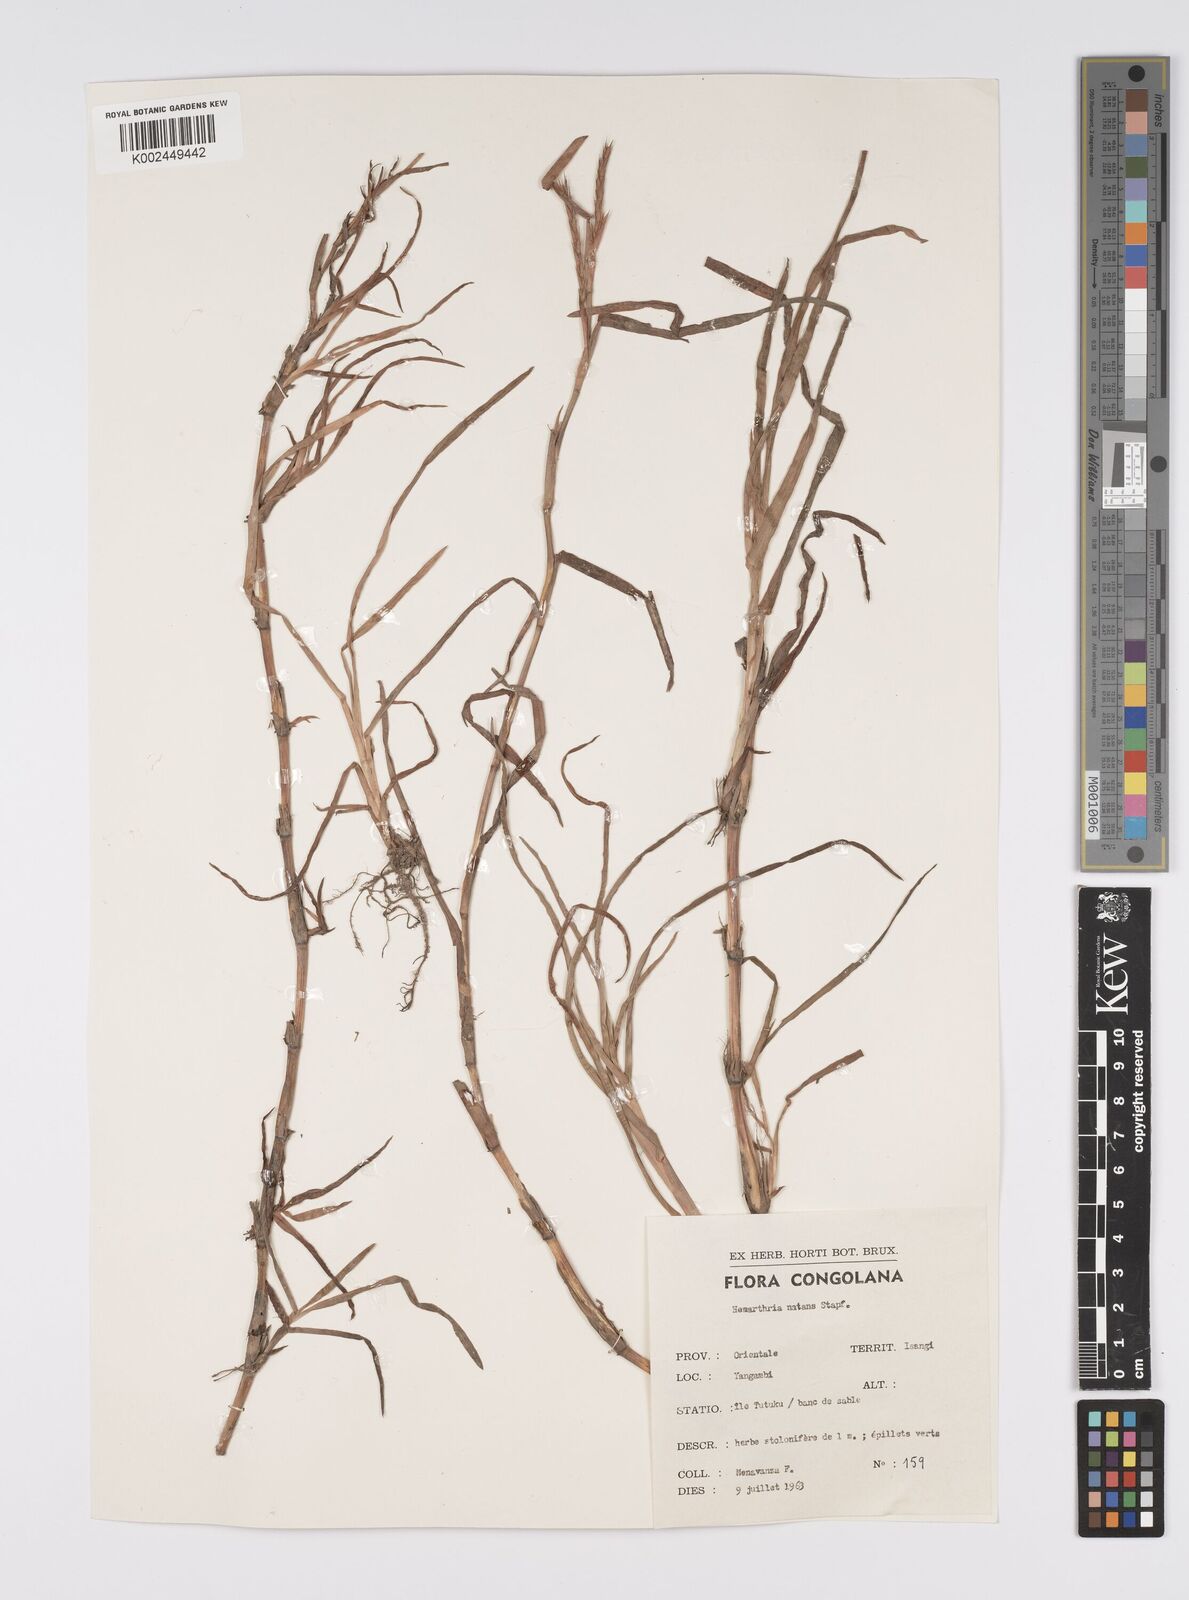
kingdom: Plantae
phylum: Tracheophyta
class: Liliopsida
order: Poales
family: Poaceae
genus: Hemarthria
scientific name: Hemarthria natans
